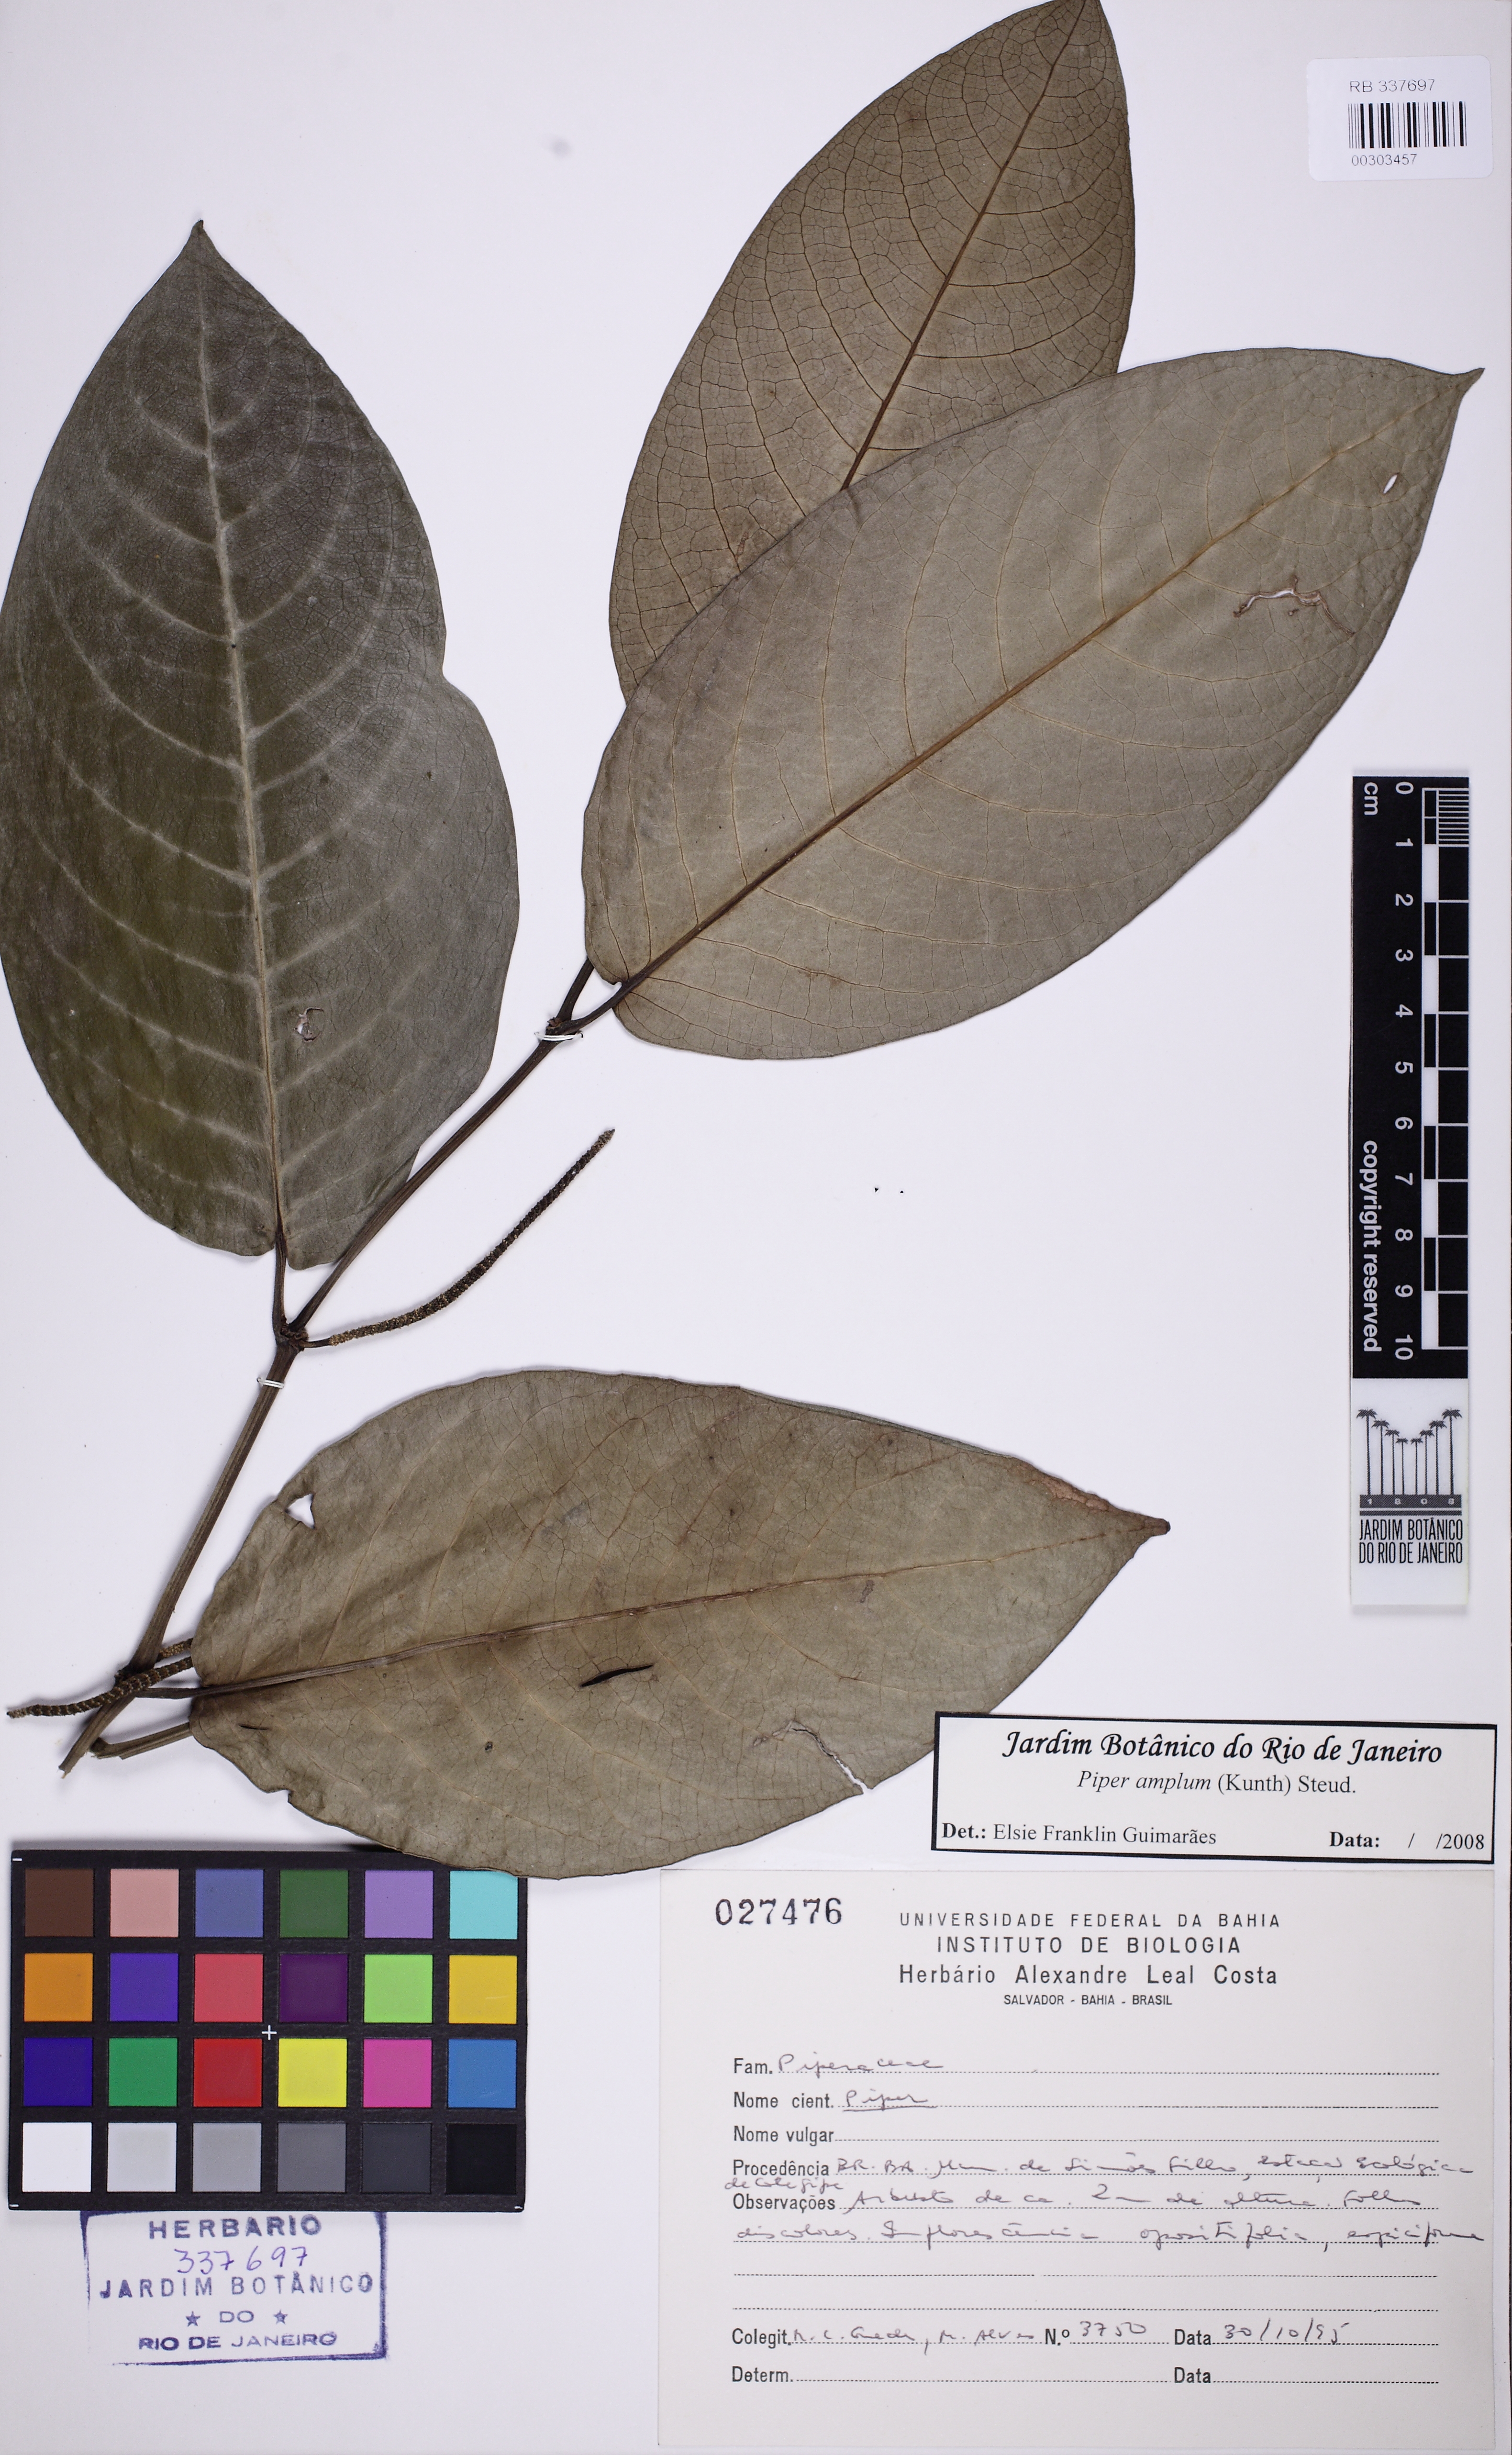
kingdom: Plantae
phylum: Tracheophyta
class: Magnoliopsida
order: Piperales
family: Piperaceae
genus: Piper
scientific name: Piper fluminense
